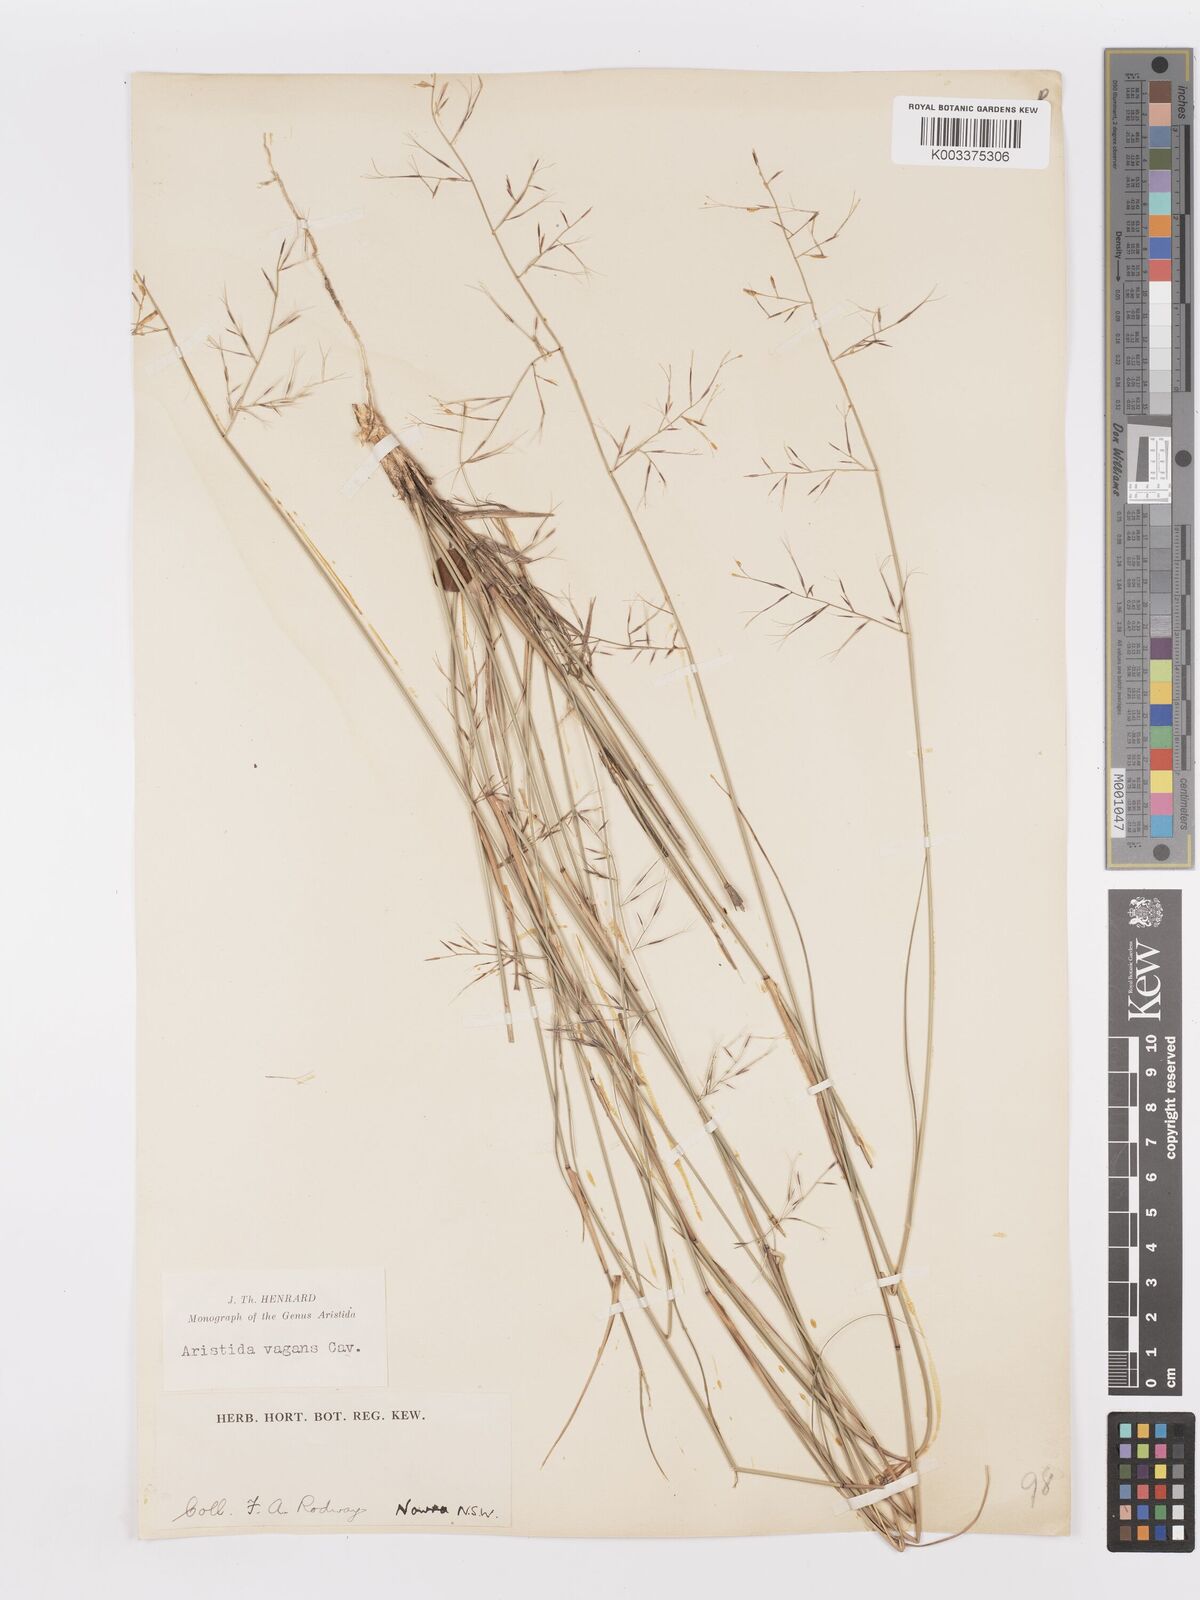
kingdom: Plantae
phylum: Tracheophyta
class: Liliopsida
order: Poales
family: Poaceae
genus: Aristida
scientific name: Aristida vagans
